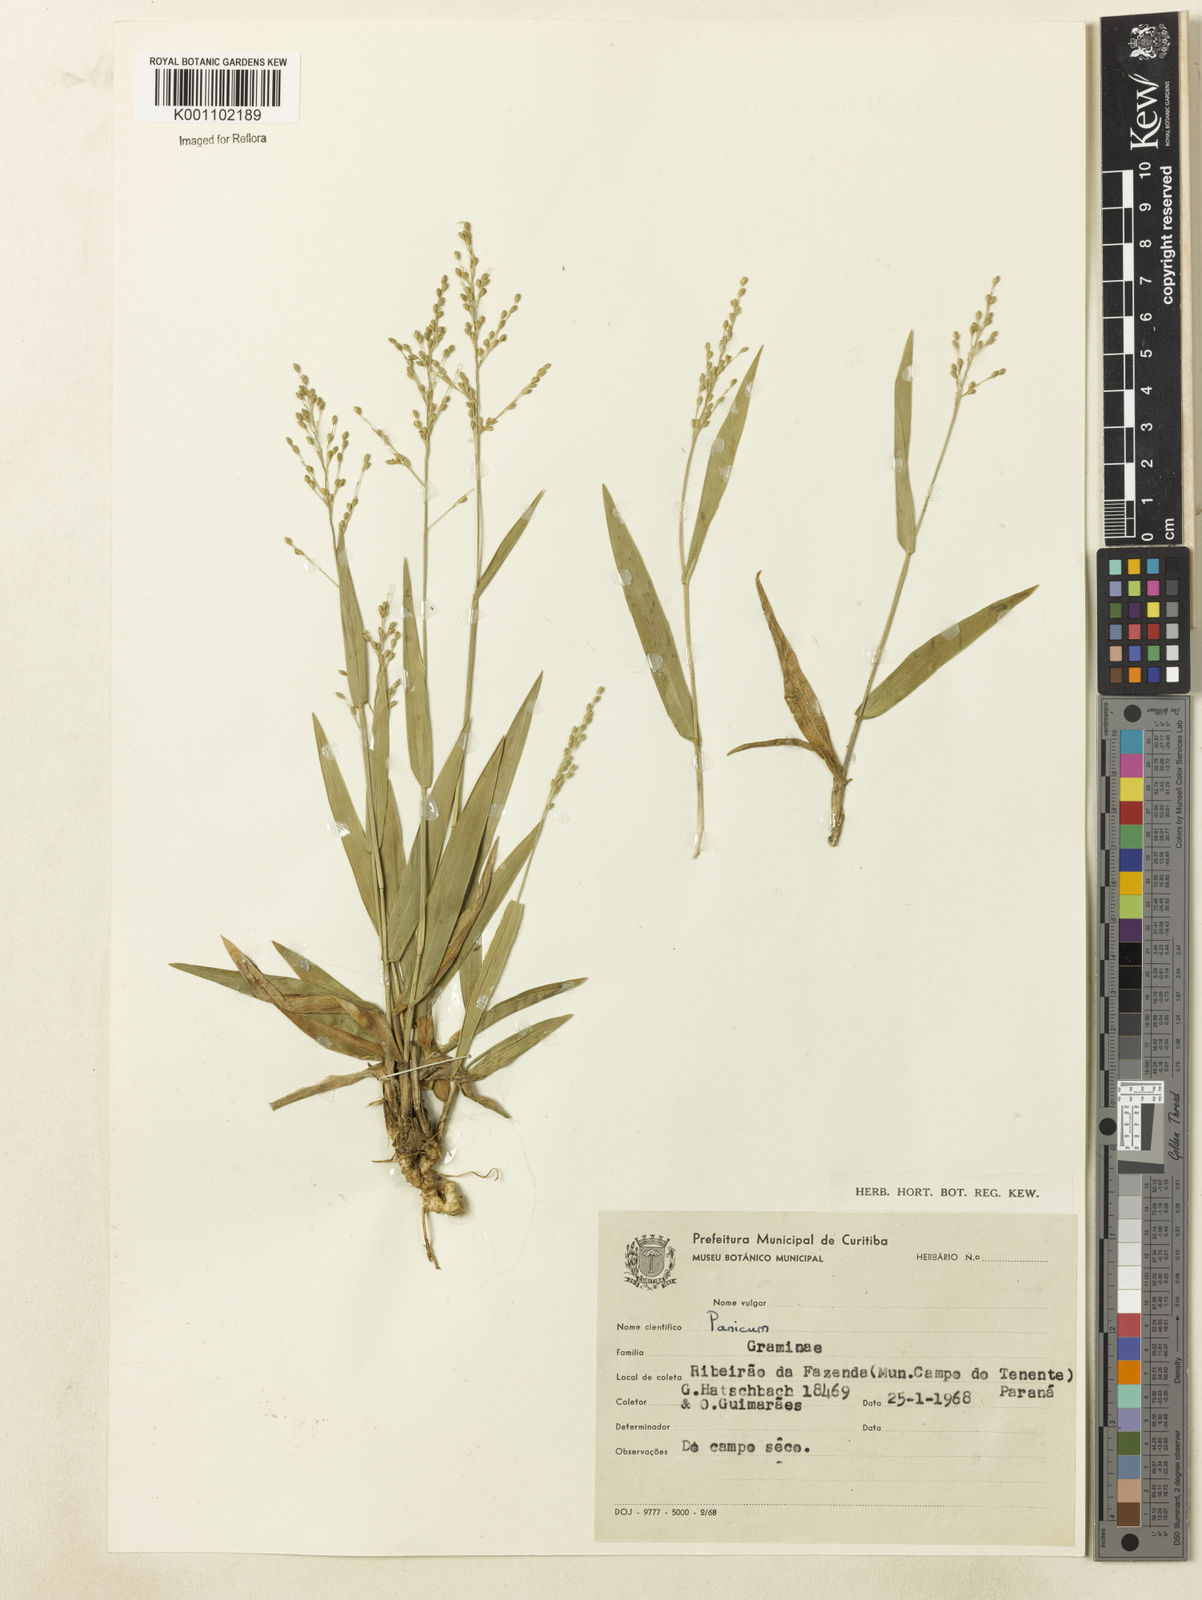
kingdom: Plantae
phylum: Tracheophyta
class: Liliopsida
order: Poales
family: Poaceae
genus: Dichanthelium
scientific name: Dichanthelium sabulorum
